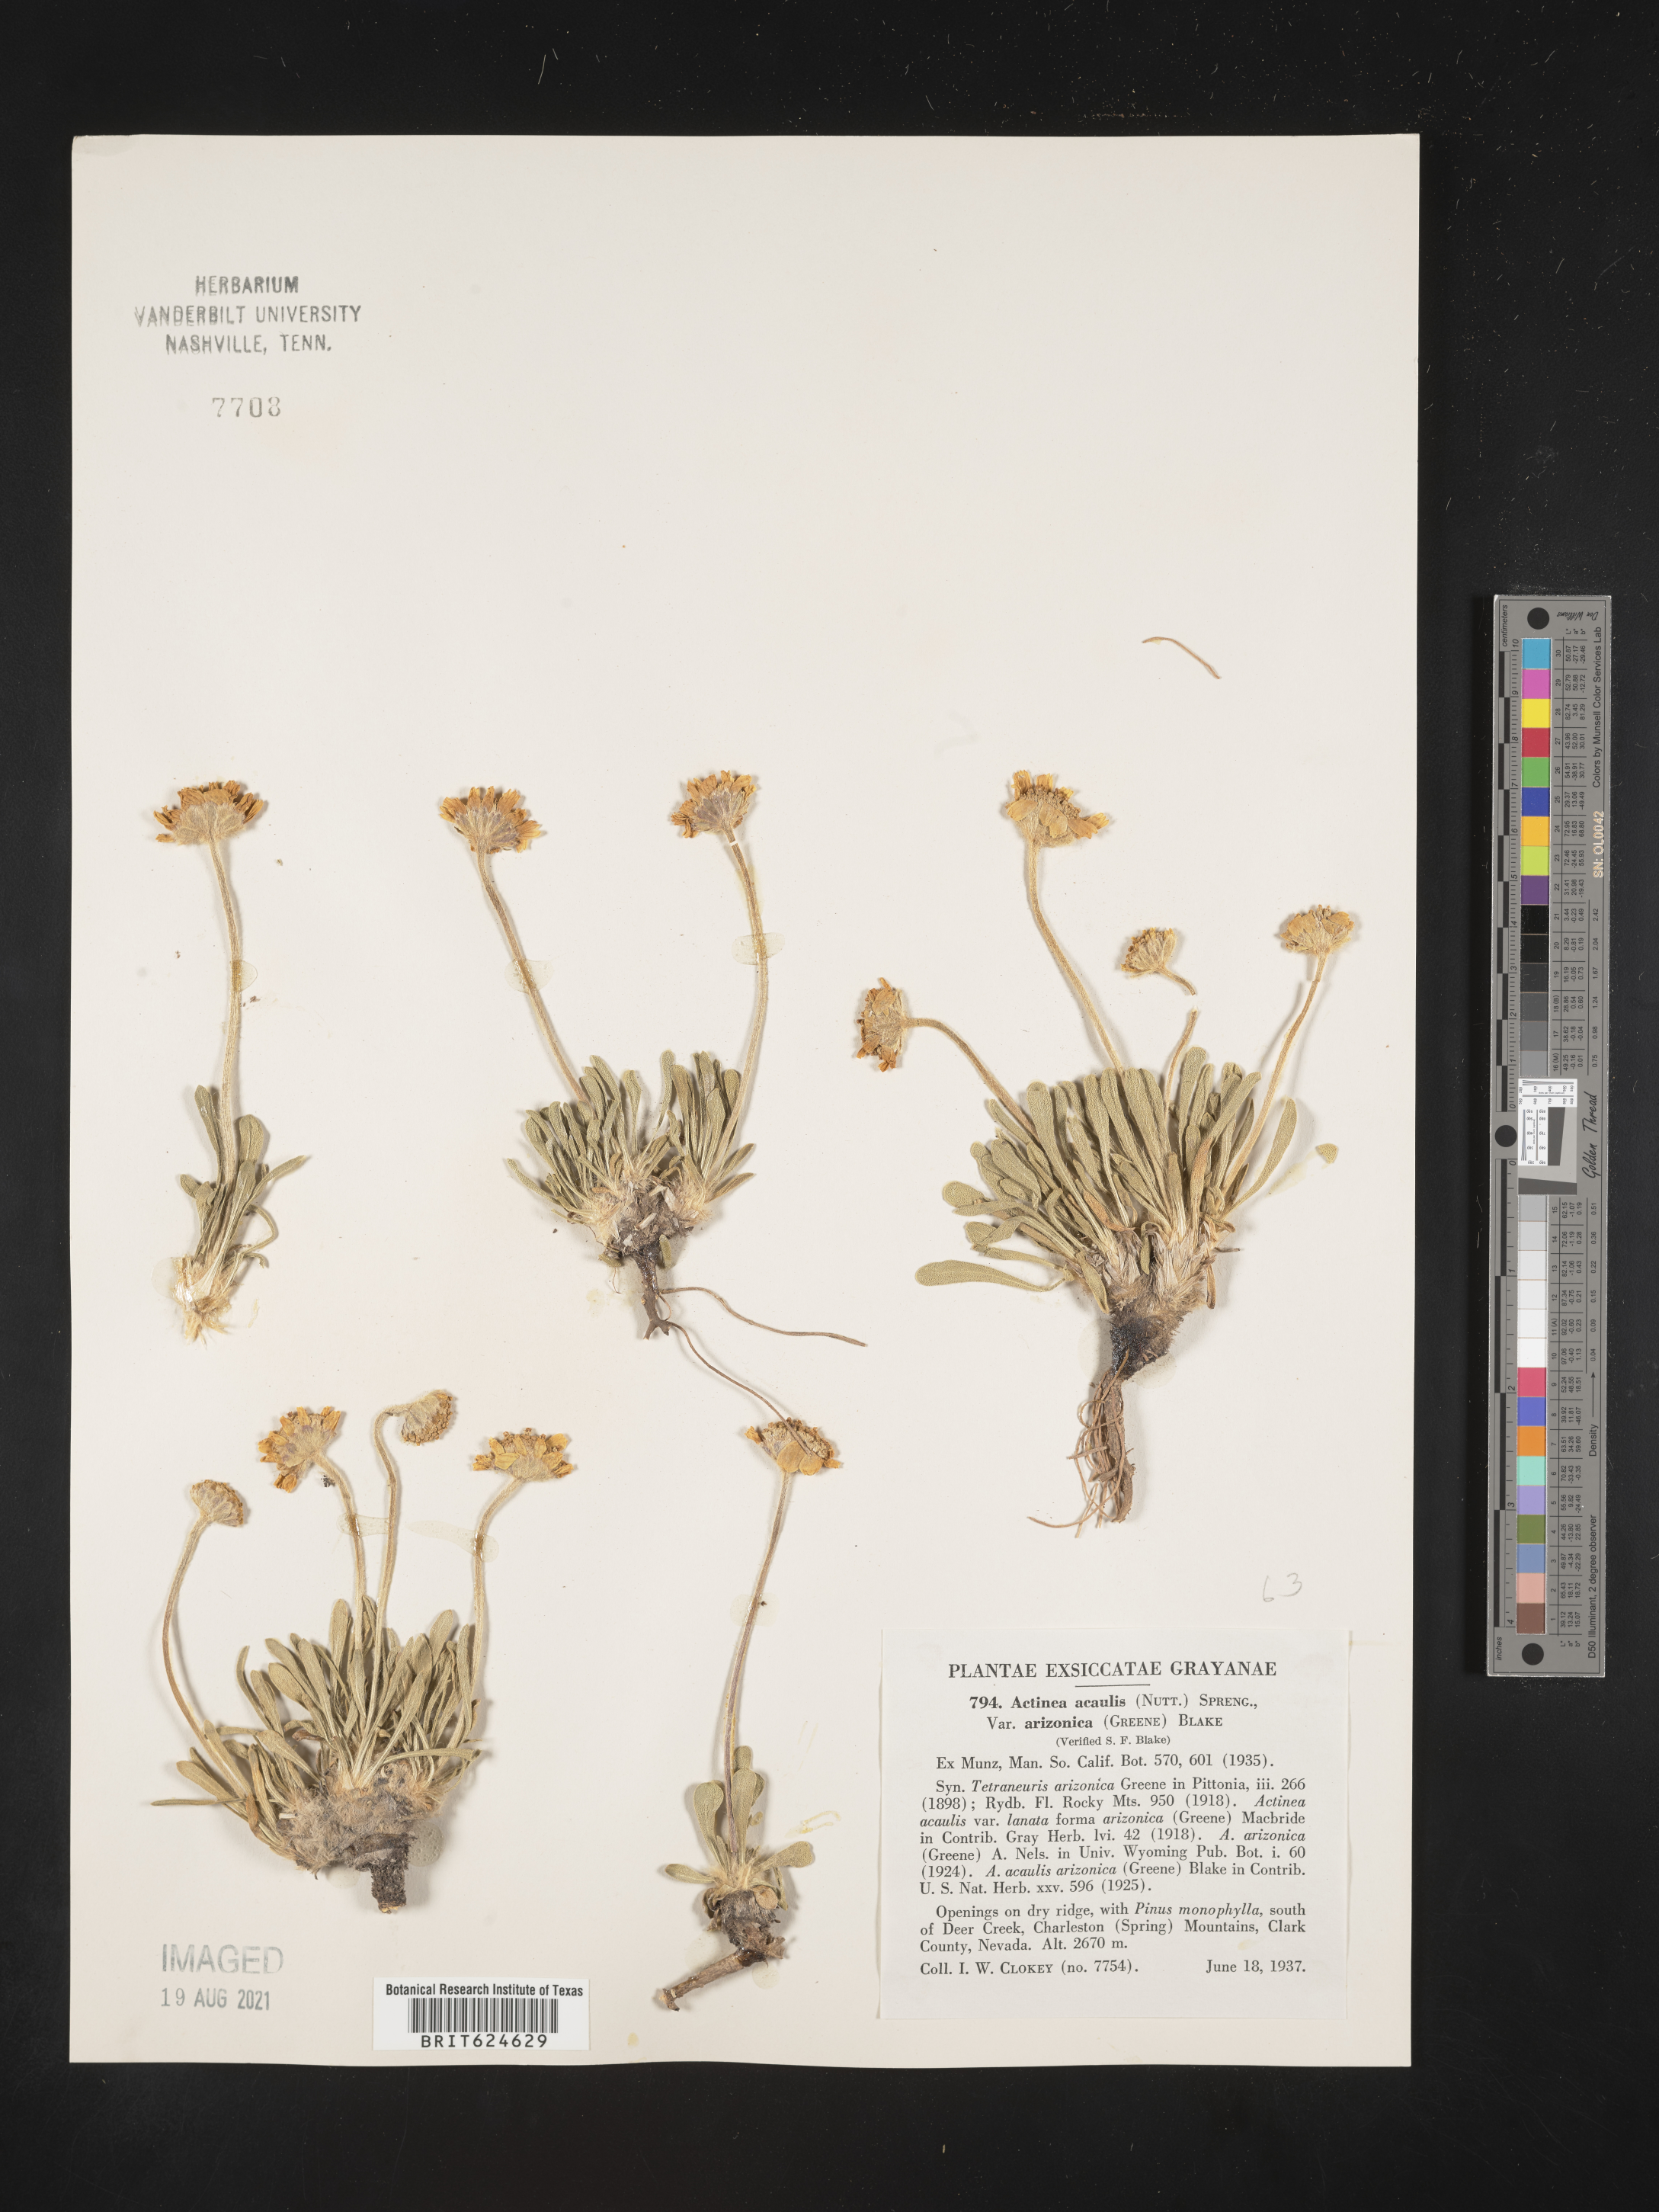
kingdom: Plantae
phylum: Tracheophyta
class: Magnoliopsida
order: Asterales
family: Asteraceae
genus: Tetraneuris
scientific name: Tetraneuris acaulis
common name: Butte marigold
